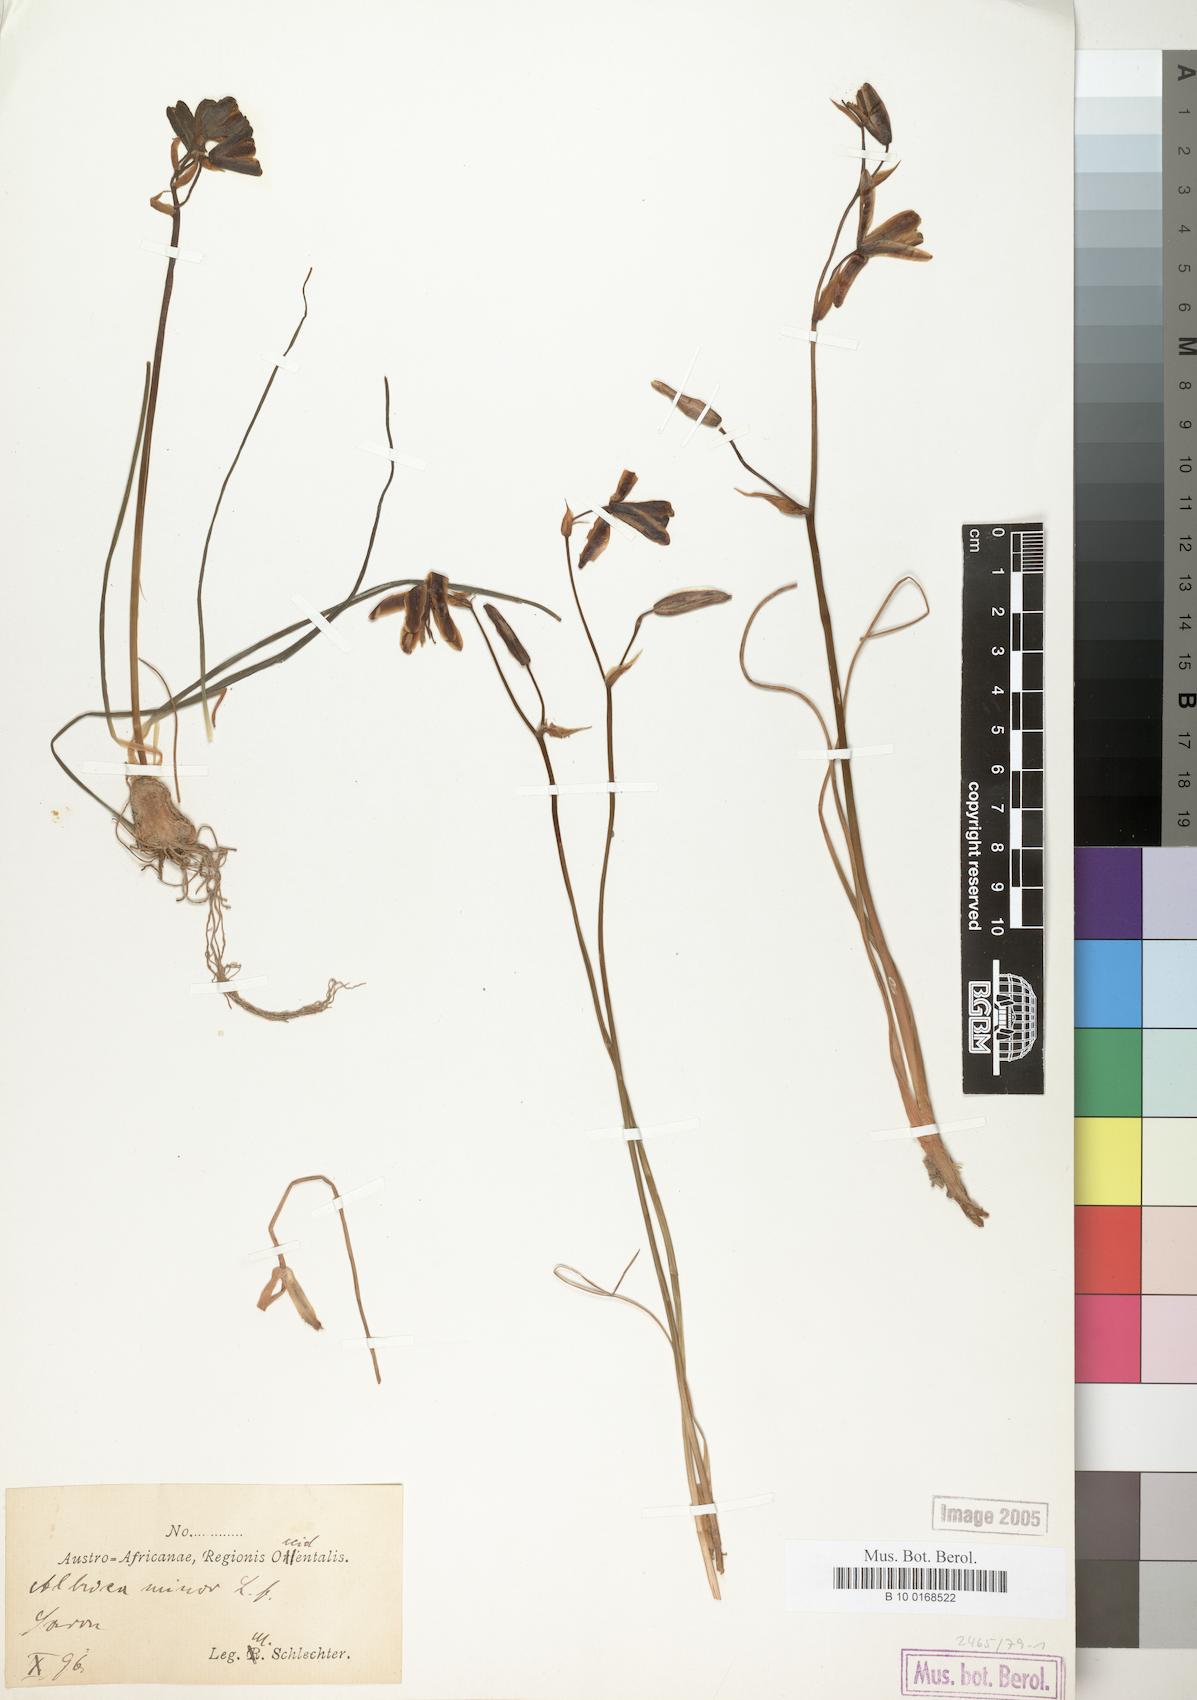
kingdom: Plantae
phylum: Tracheophyta
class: Liliopsida
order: Asparagales
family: Asparagaceae
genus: Albuca
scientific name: Albuca canadensis
